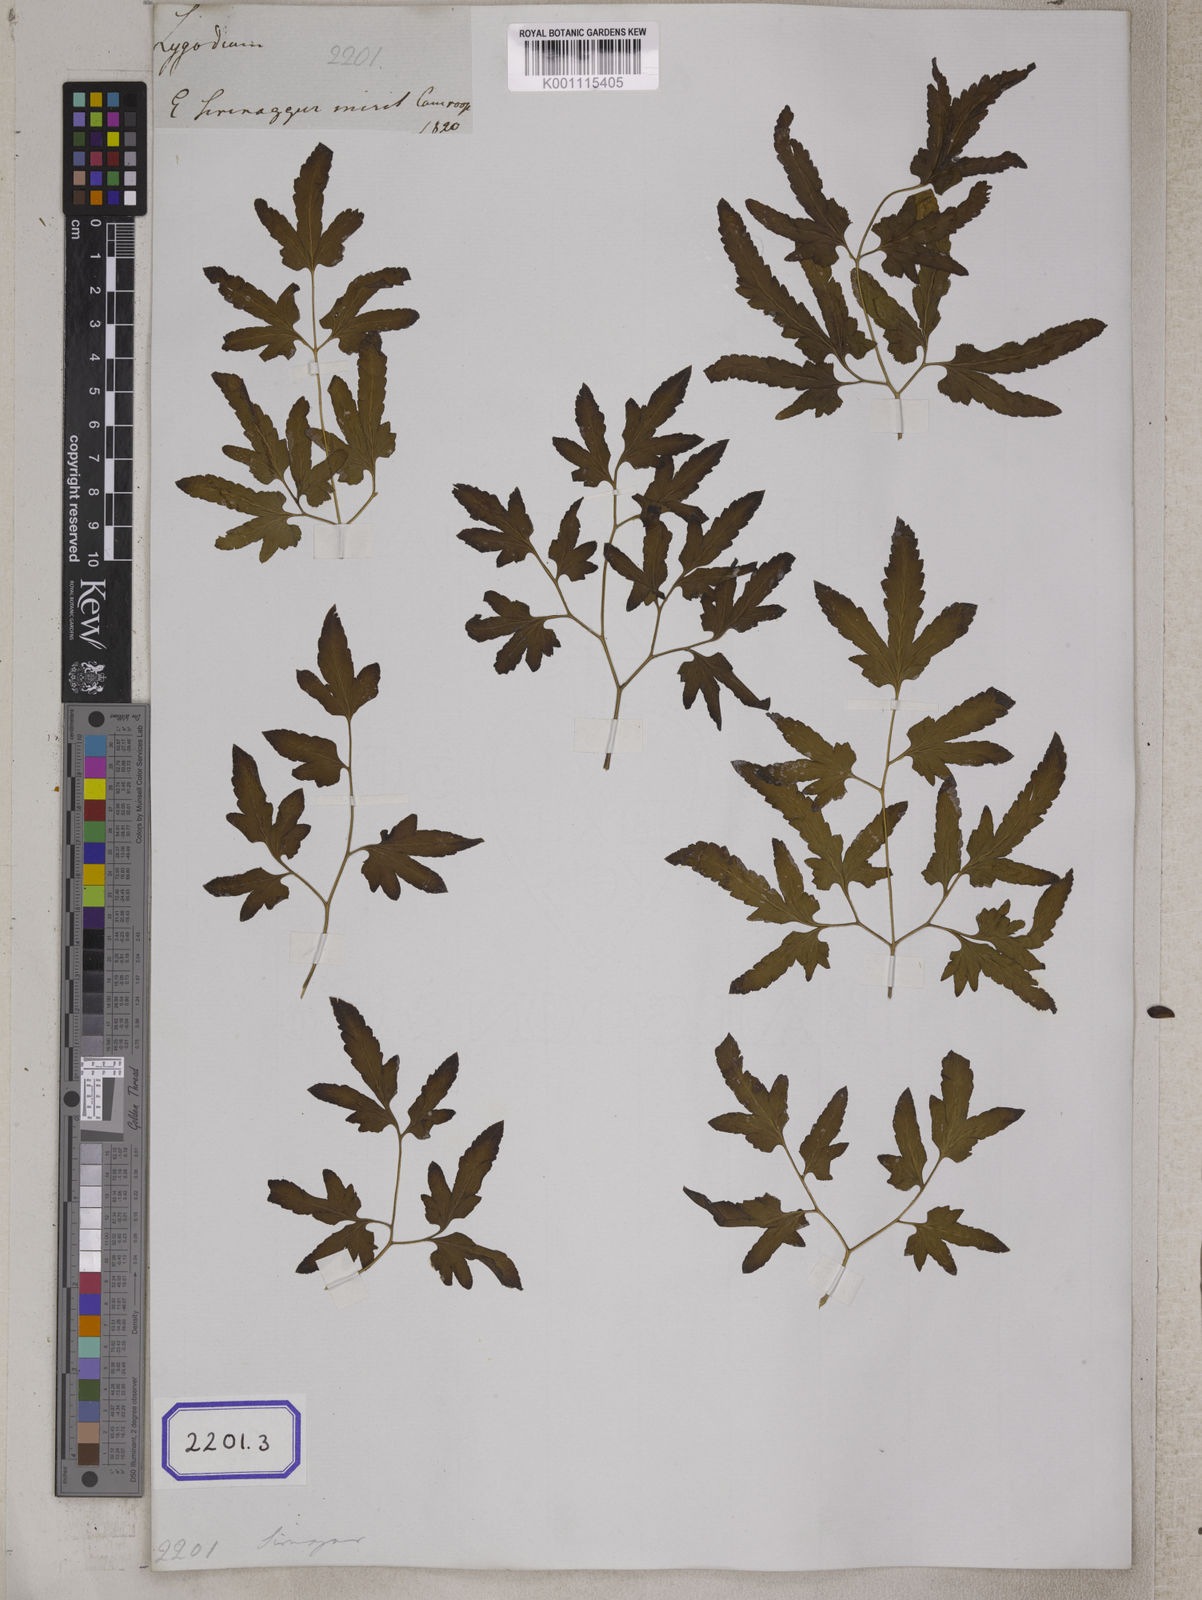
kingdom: Plantae
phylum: Tracheophyta
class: Polypodiopsida
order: Schizaeales
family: Lygodiaceae
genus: Lygodium
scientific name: Lygodium
